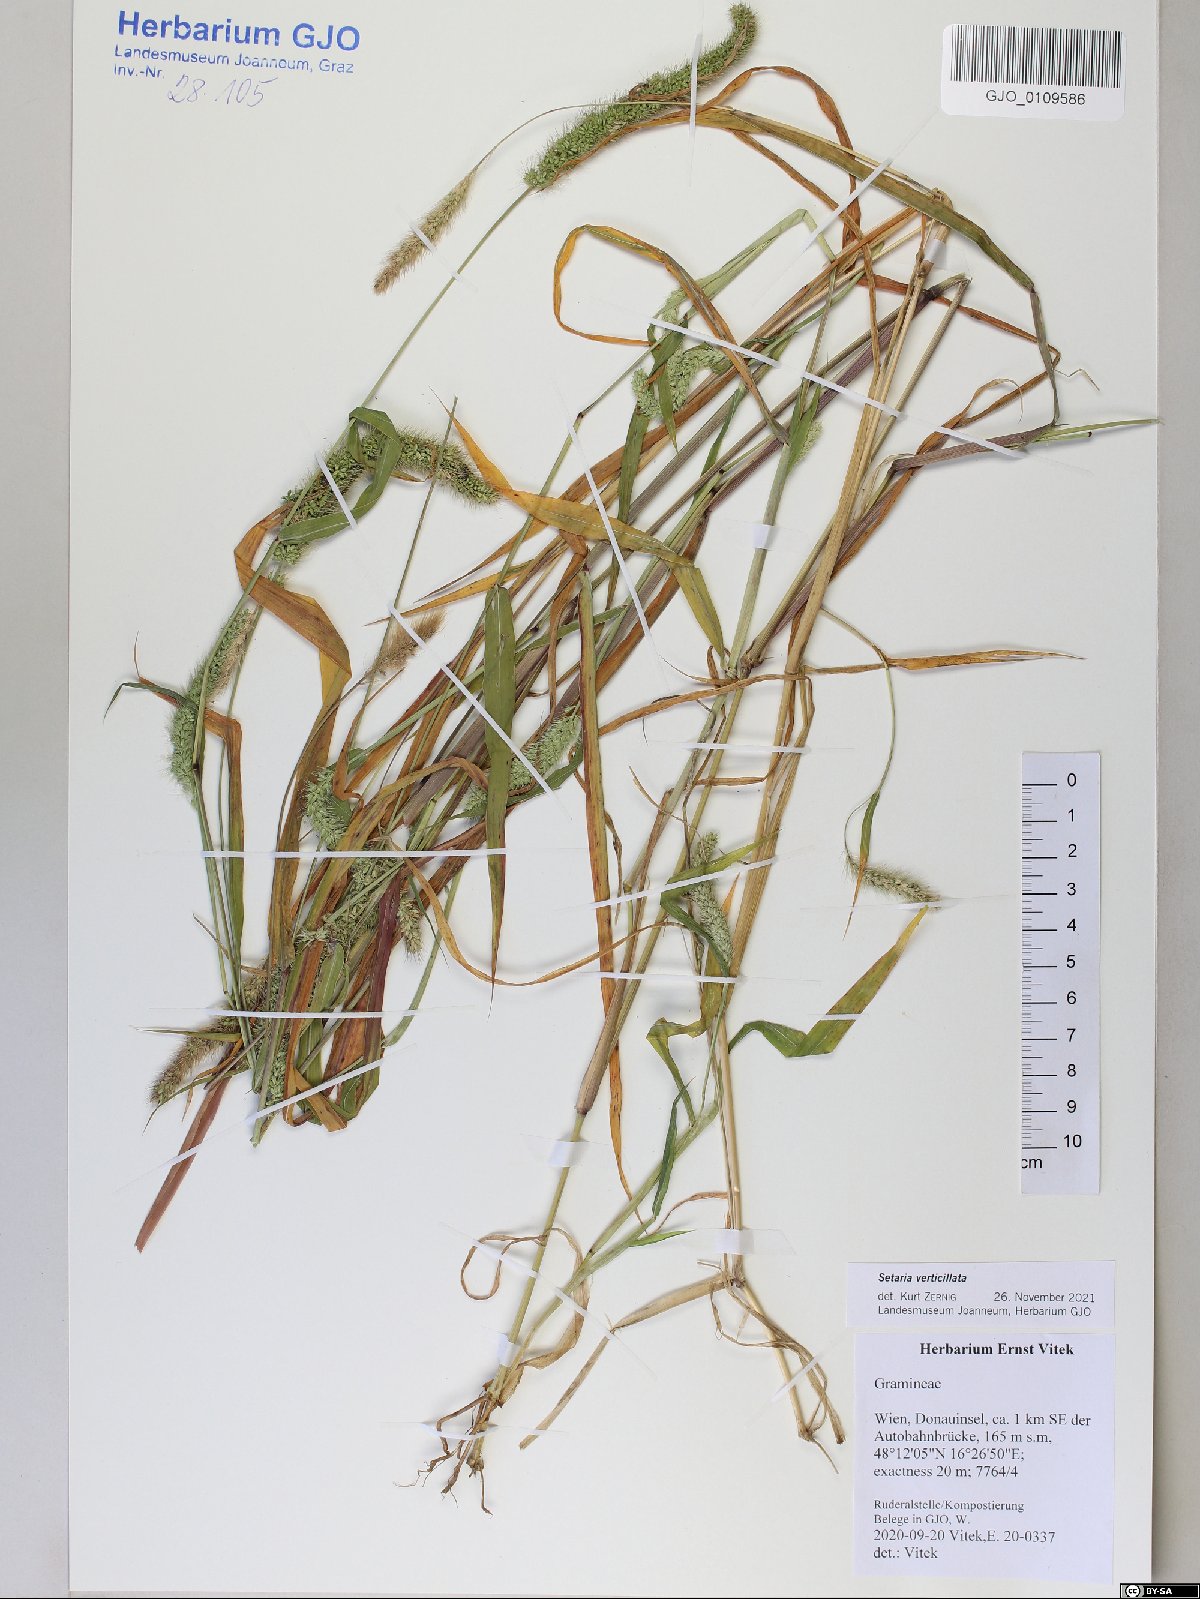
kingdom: Plantae
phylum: Tracheophyta
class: Liliopsida
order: Poales
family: Poaceae
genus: Setaria
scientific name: Setaria verticillata
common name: Hooked bristlegrass
